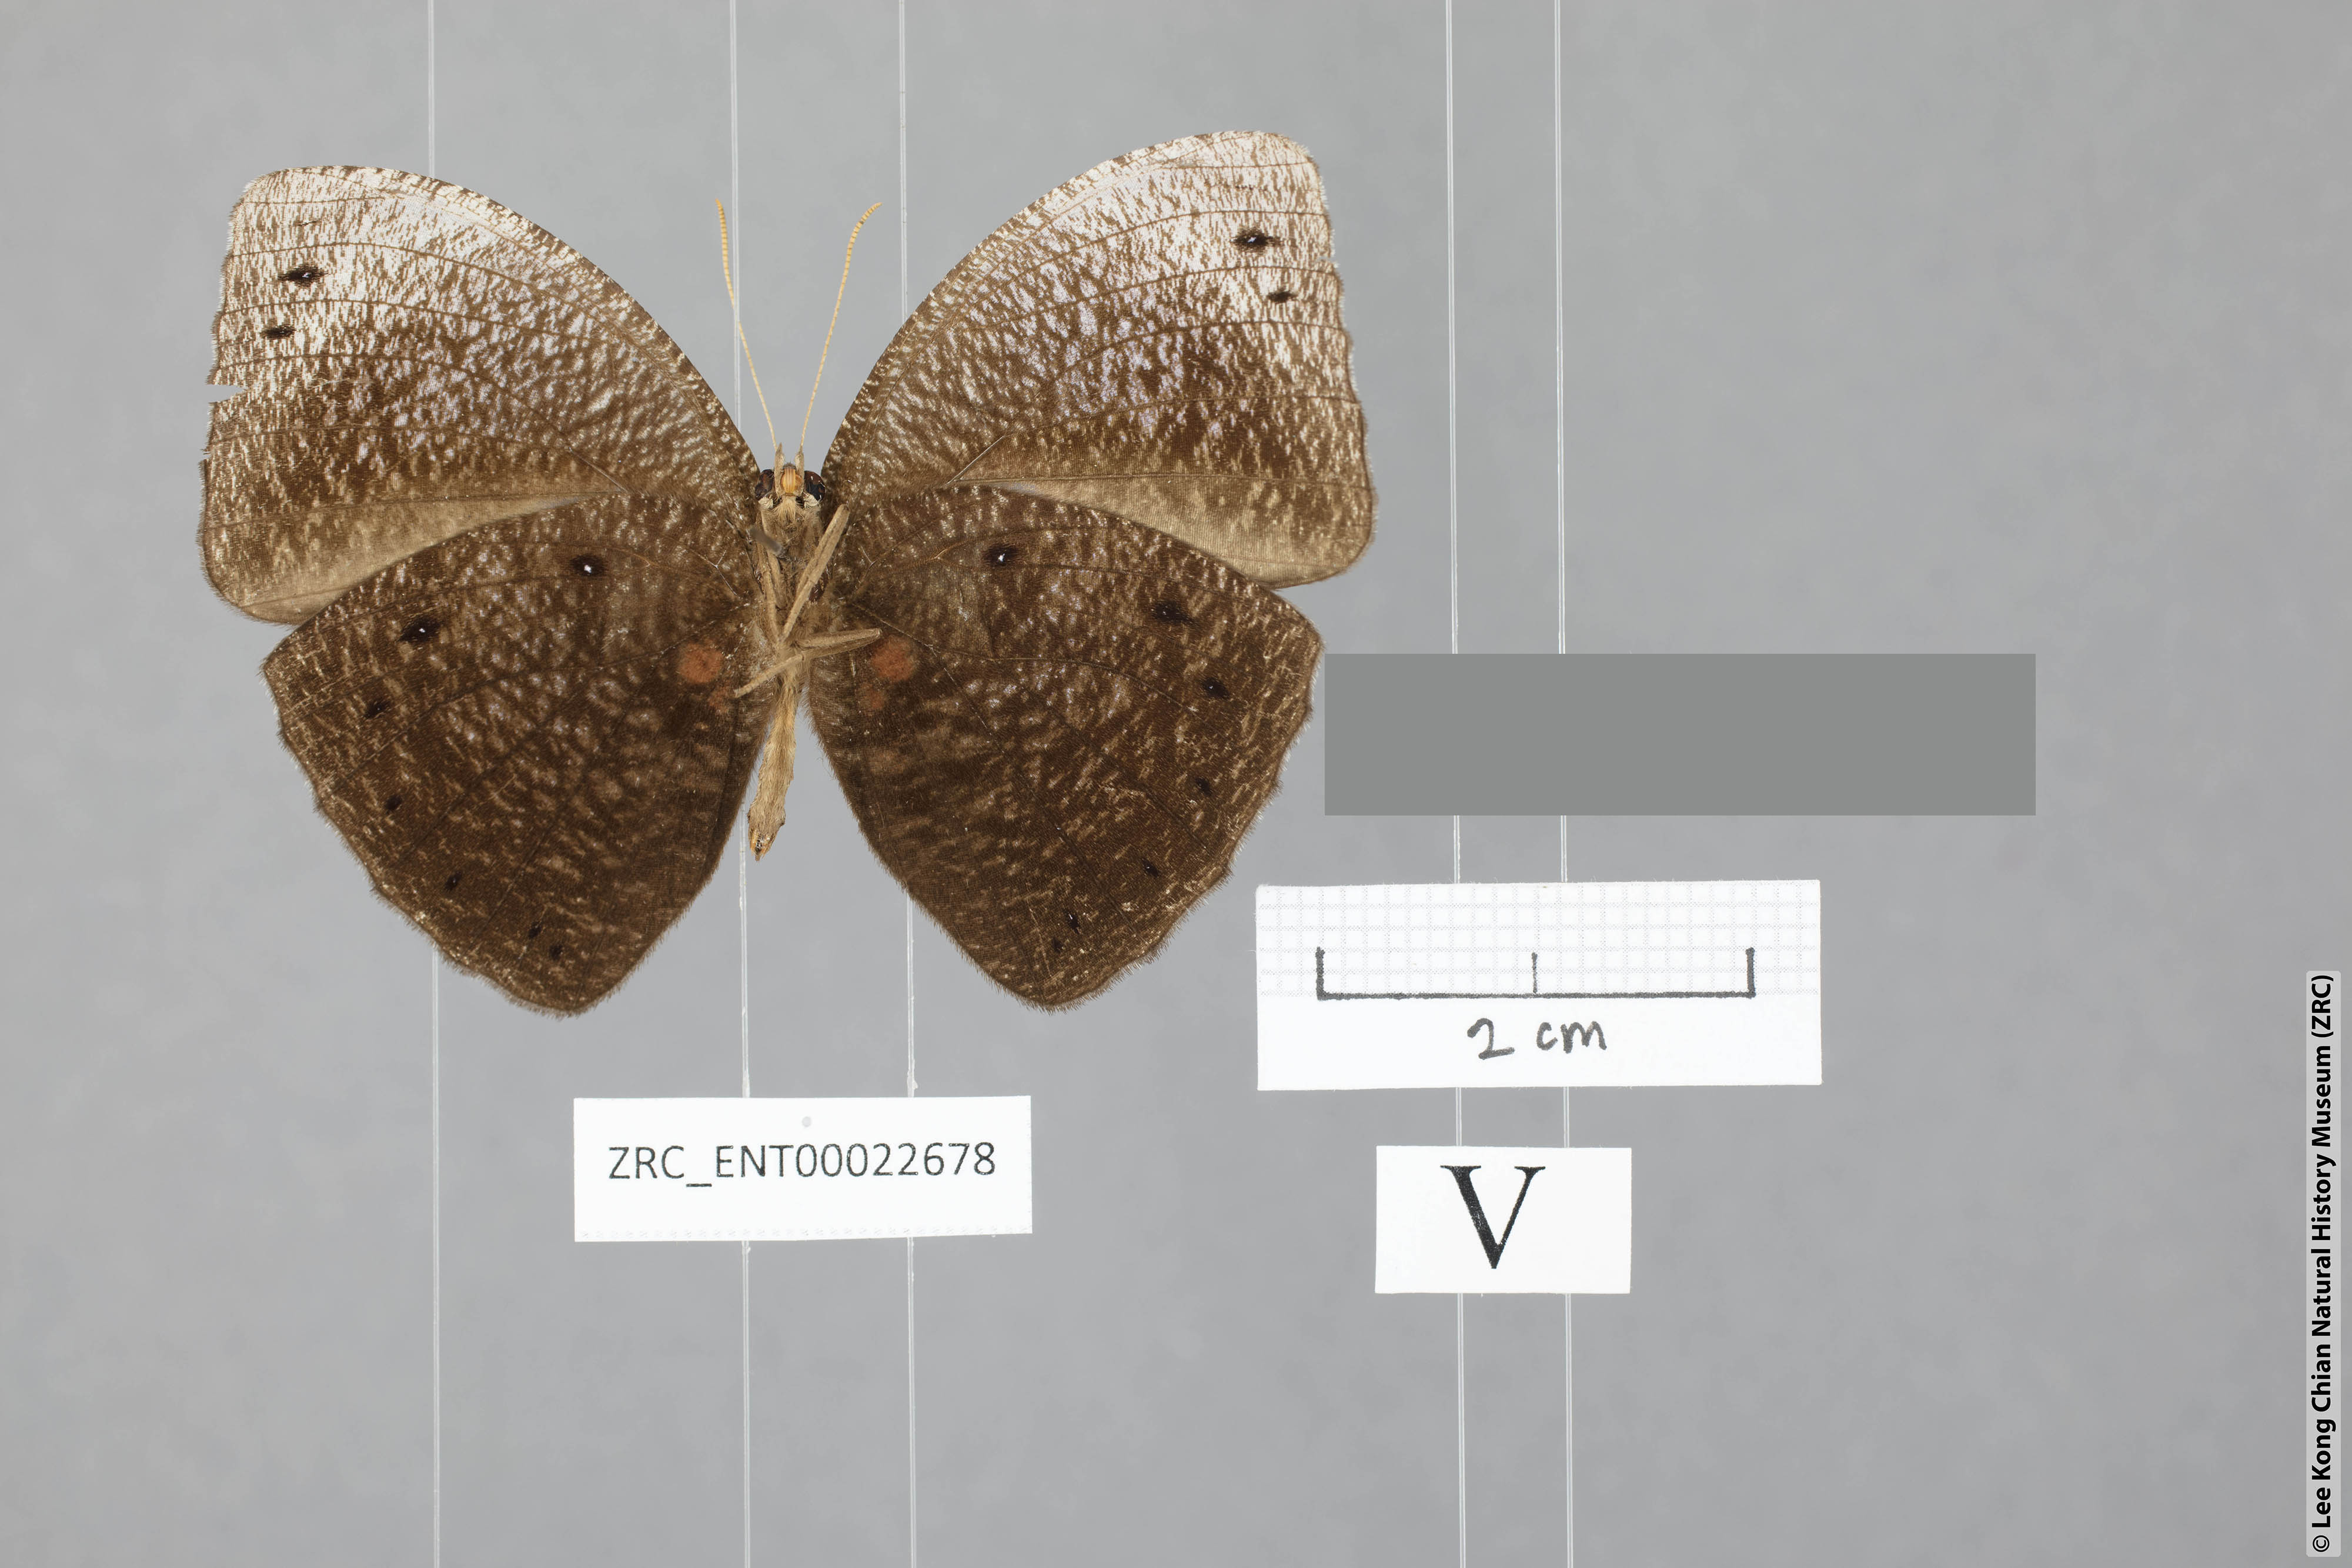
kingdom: Animalia
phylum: Arthropoda
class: Insecta
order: Lepidoptera
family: Nymphalidae
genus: Elymnias
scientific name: Elymnias esaca
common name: Green palmfly
